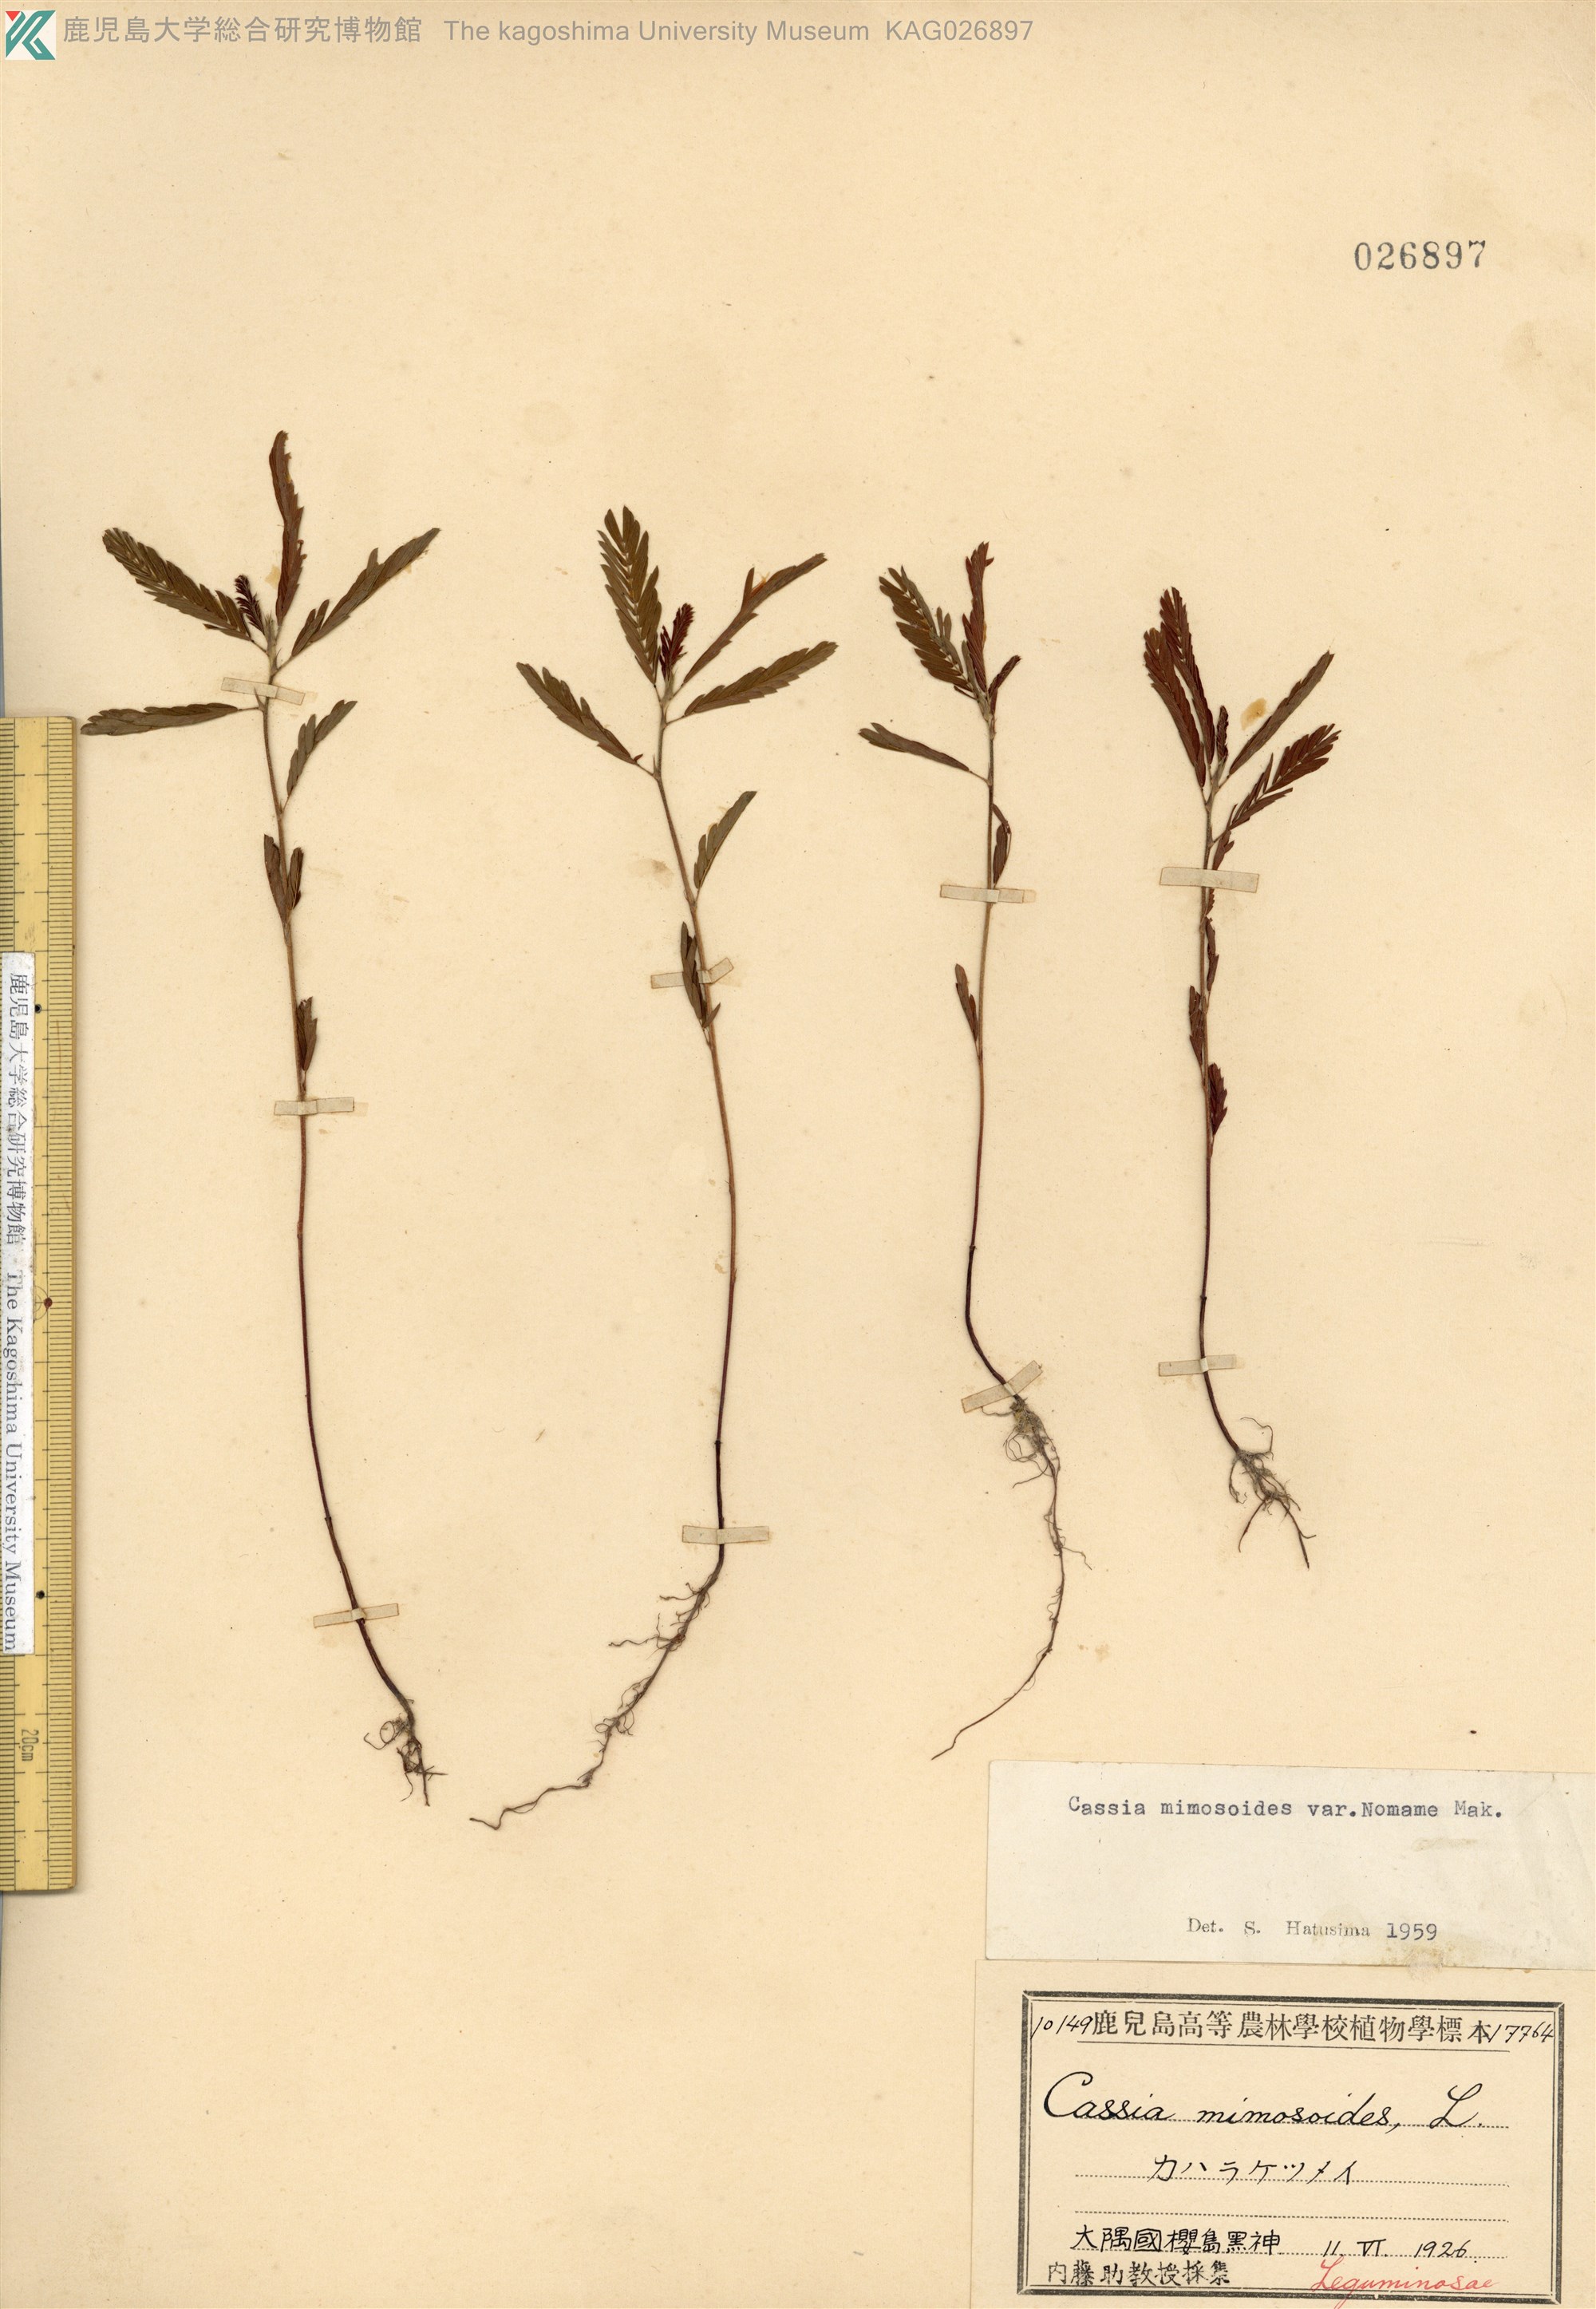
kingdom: Plantae
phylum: Tracheophyta
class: Magnoliopsida
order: Fabales
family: Fabaceae
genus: Chamaecrista
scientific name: Chamaecrista nomame
